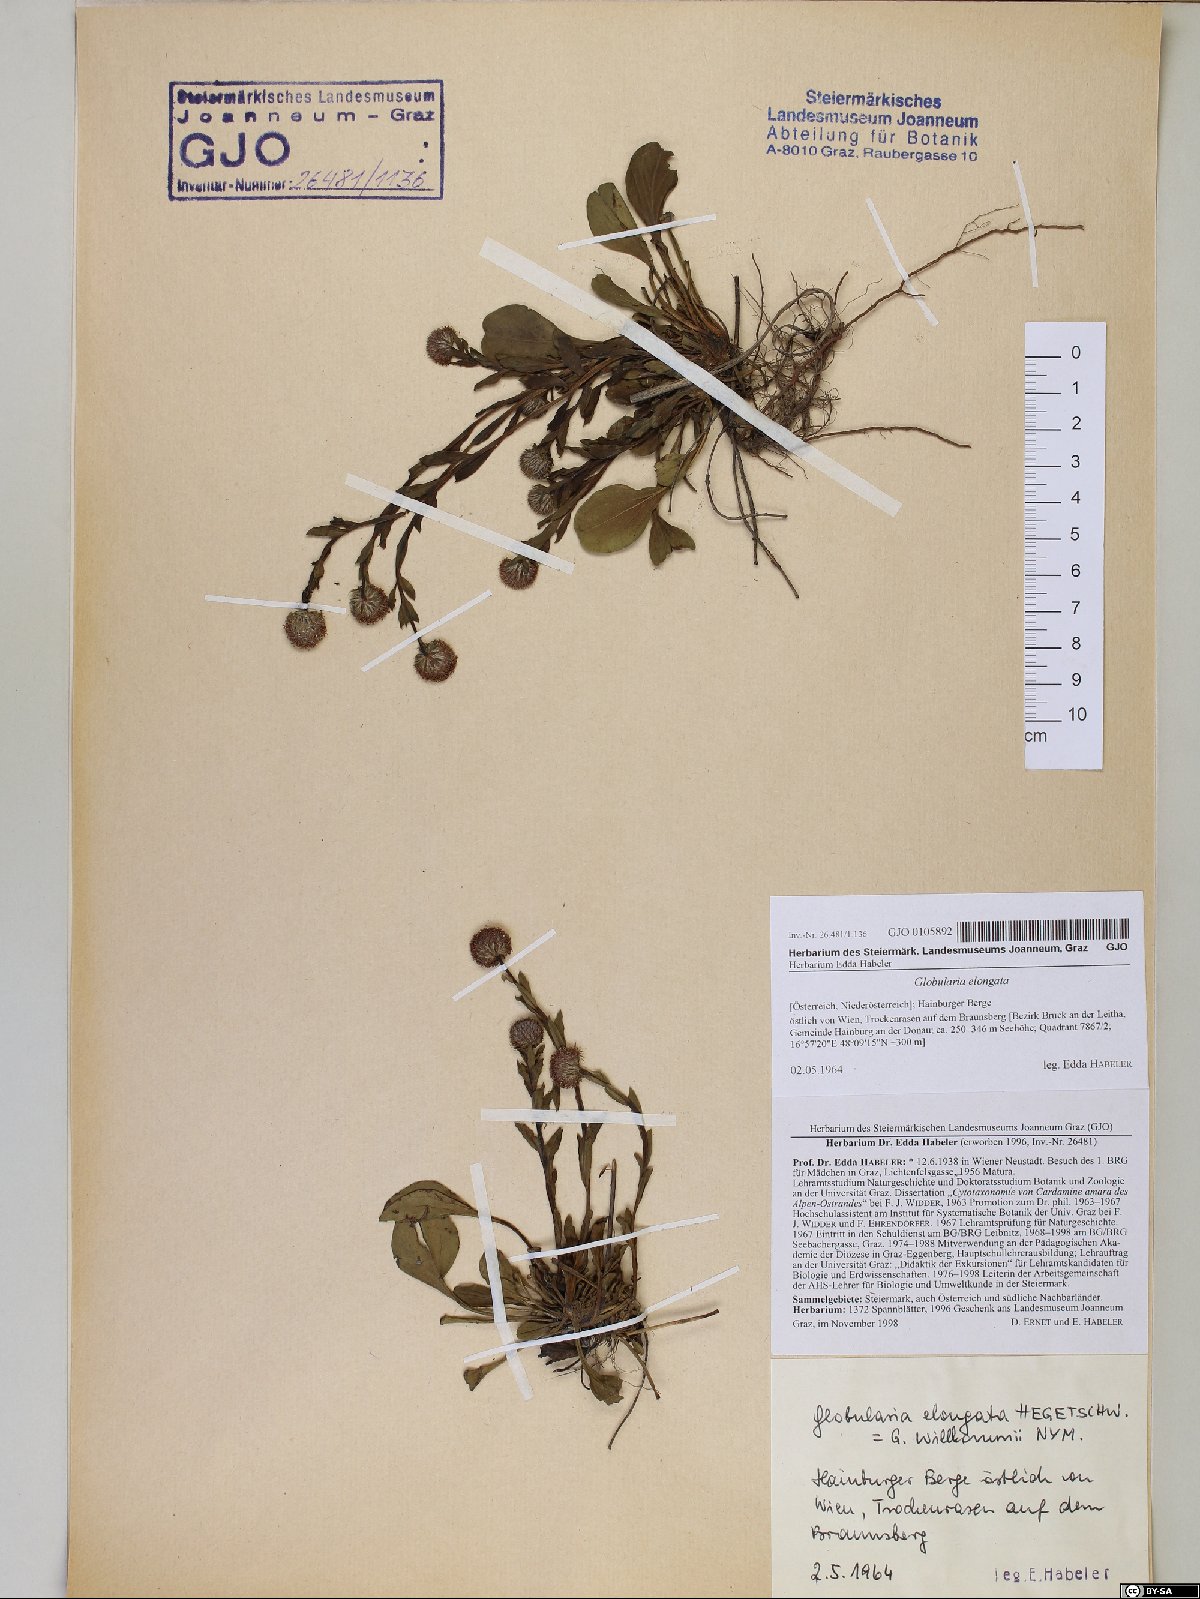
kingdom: Plantae
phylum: Tracheophyta
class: Magnoliopsida
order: Lamiales
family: Plantaginaceae
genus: Globularia
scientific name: Globularia bisnagarica
